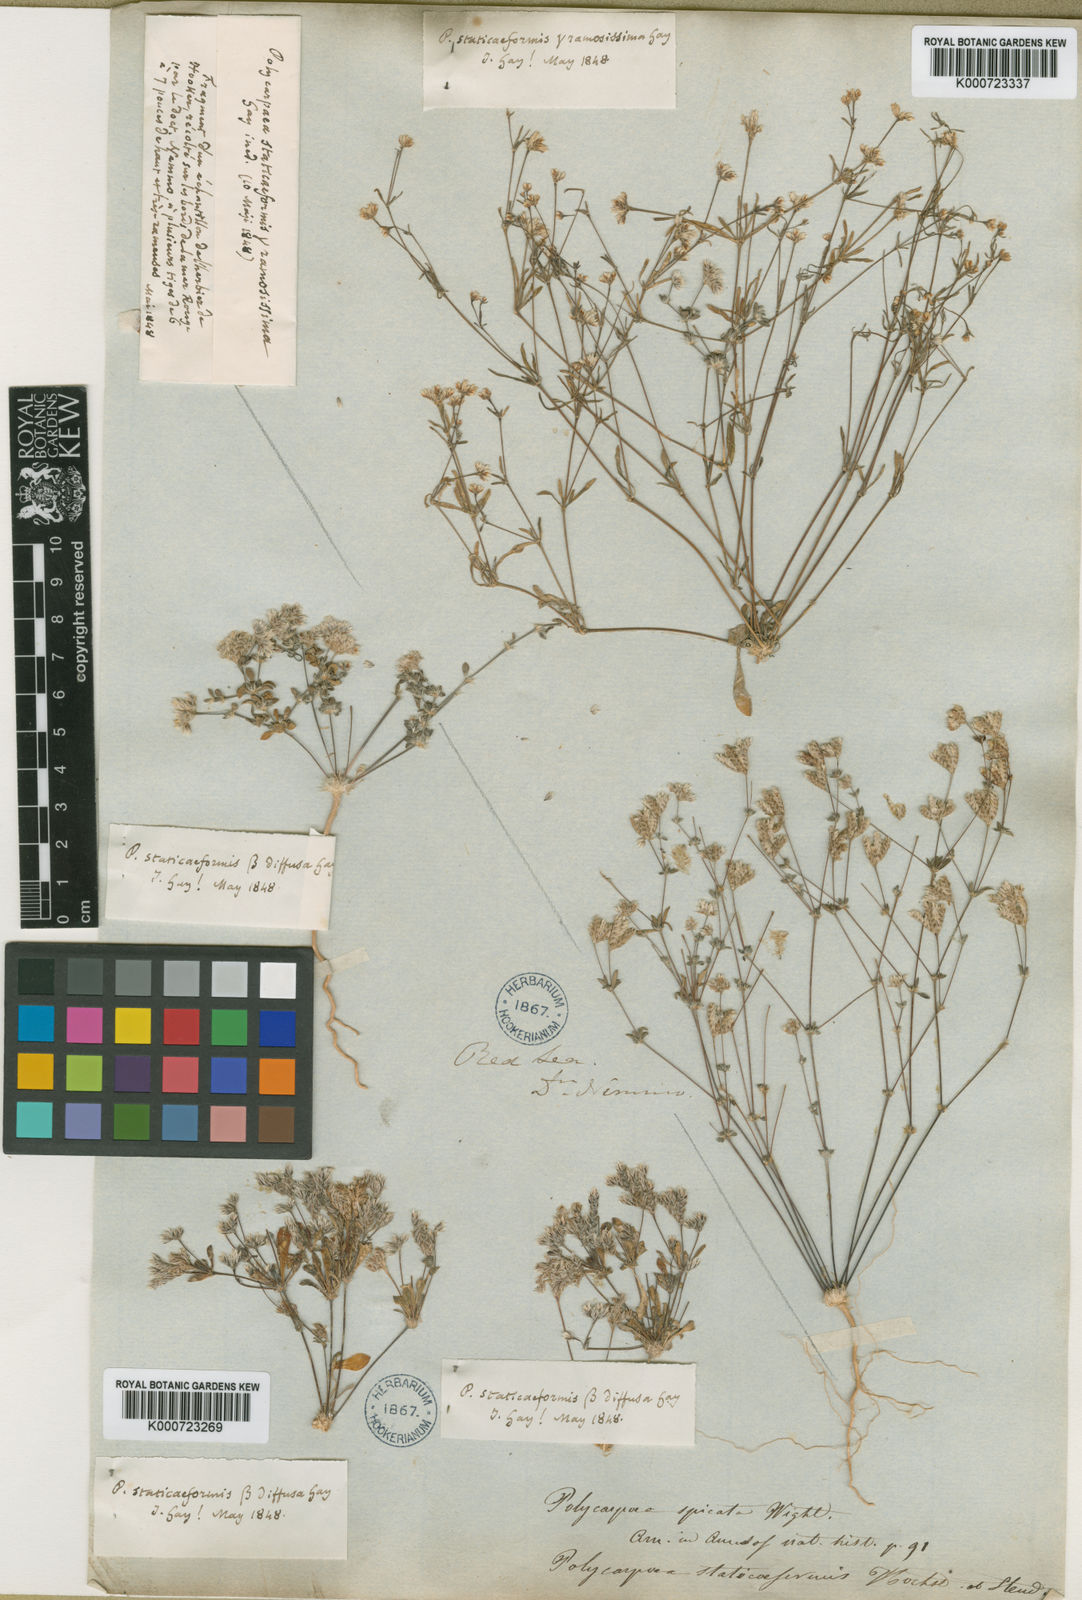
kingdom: Plantae
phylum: Tracheophyta
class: Magnoliopsida
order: Caryophyllales
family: Caryophyllaceae
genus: Polycarpaea
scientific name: Polycarpaea spicata
